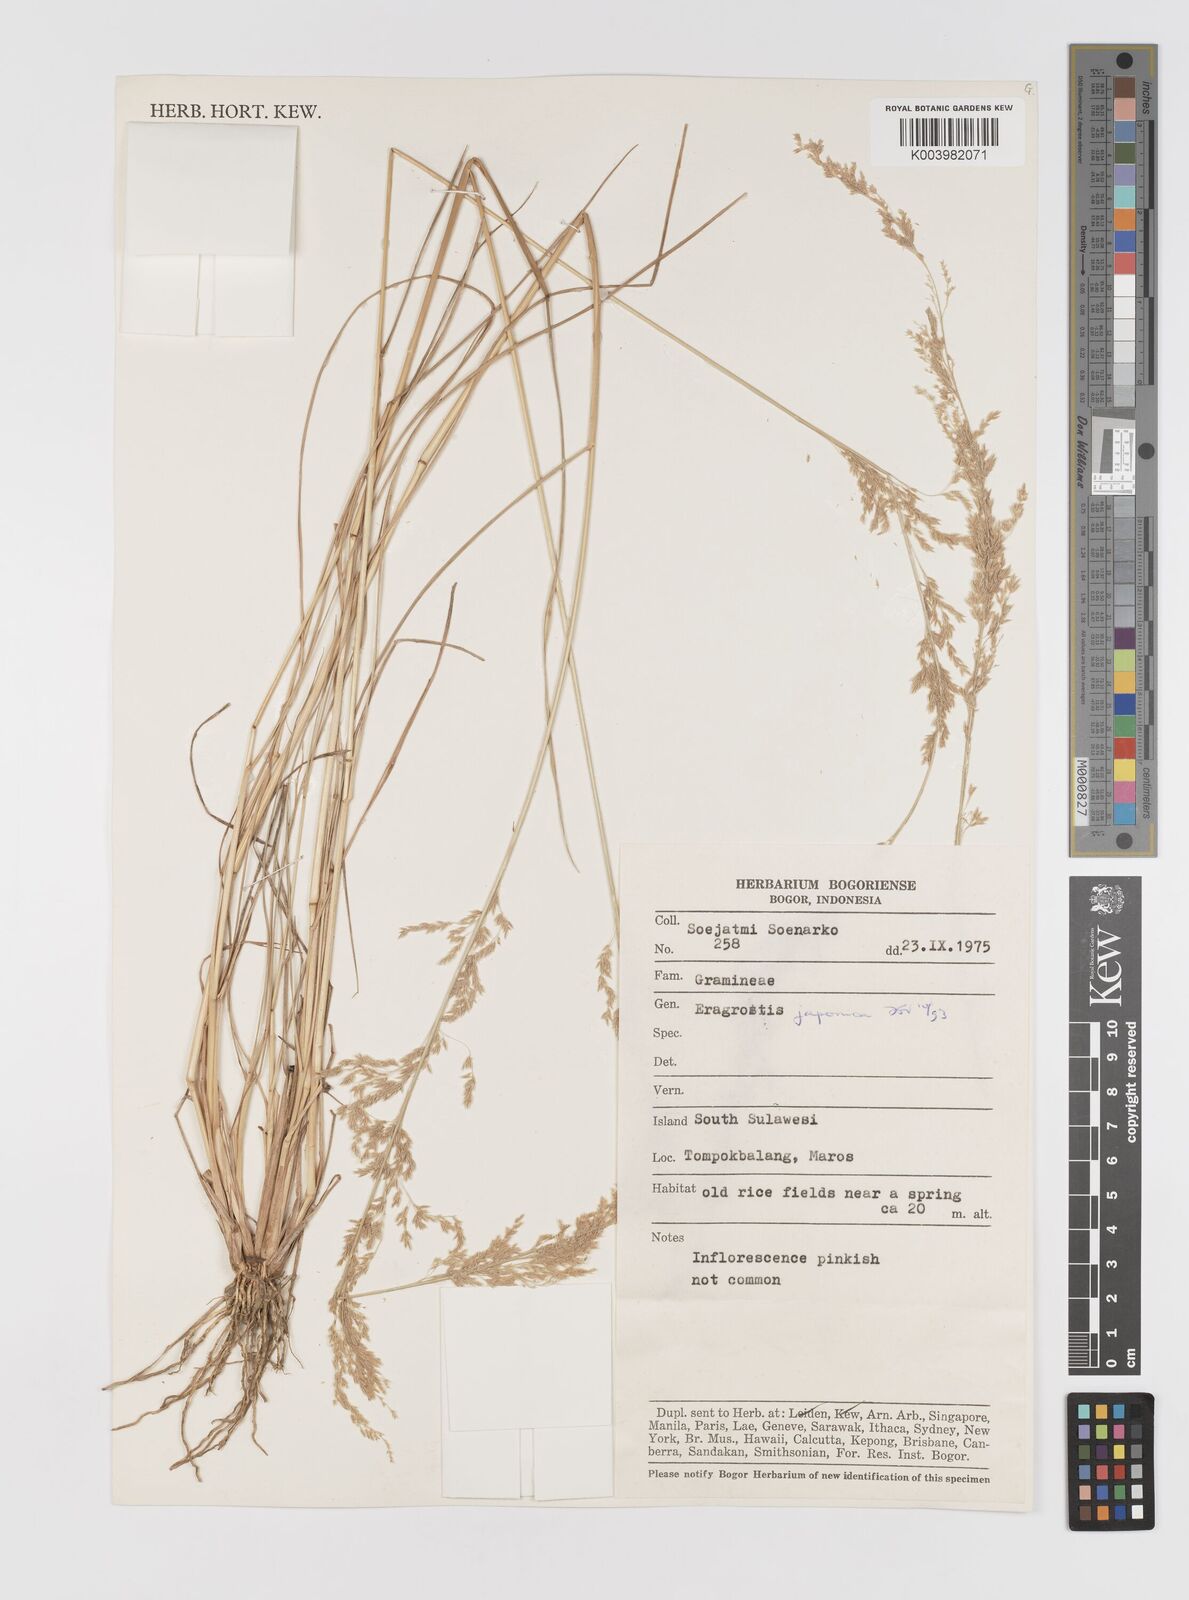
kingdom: Plantae
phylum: Tracheophyta
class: Liliopsida
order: Poales
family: Poaceae
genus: Eragrostis
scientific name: Eragrostis japonica
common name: Pond lovegrass
